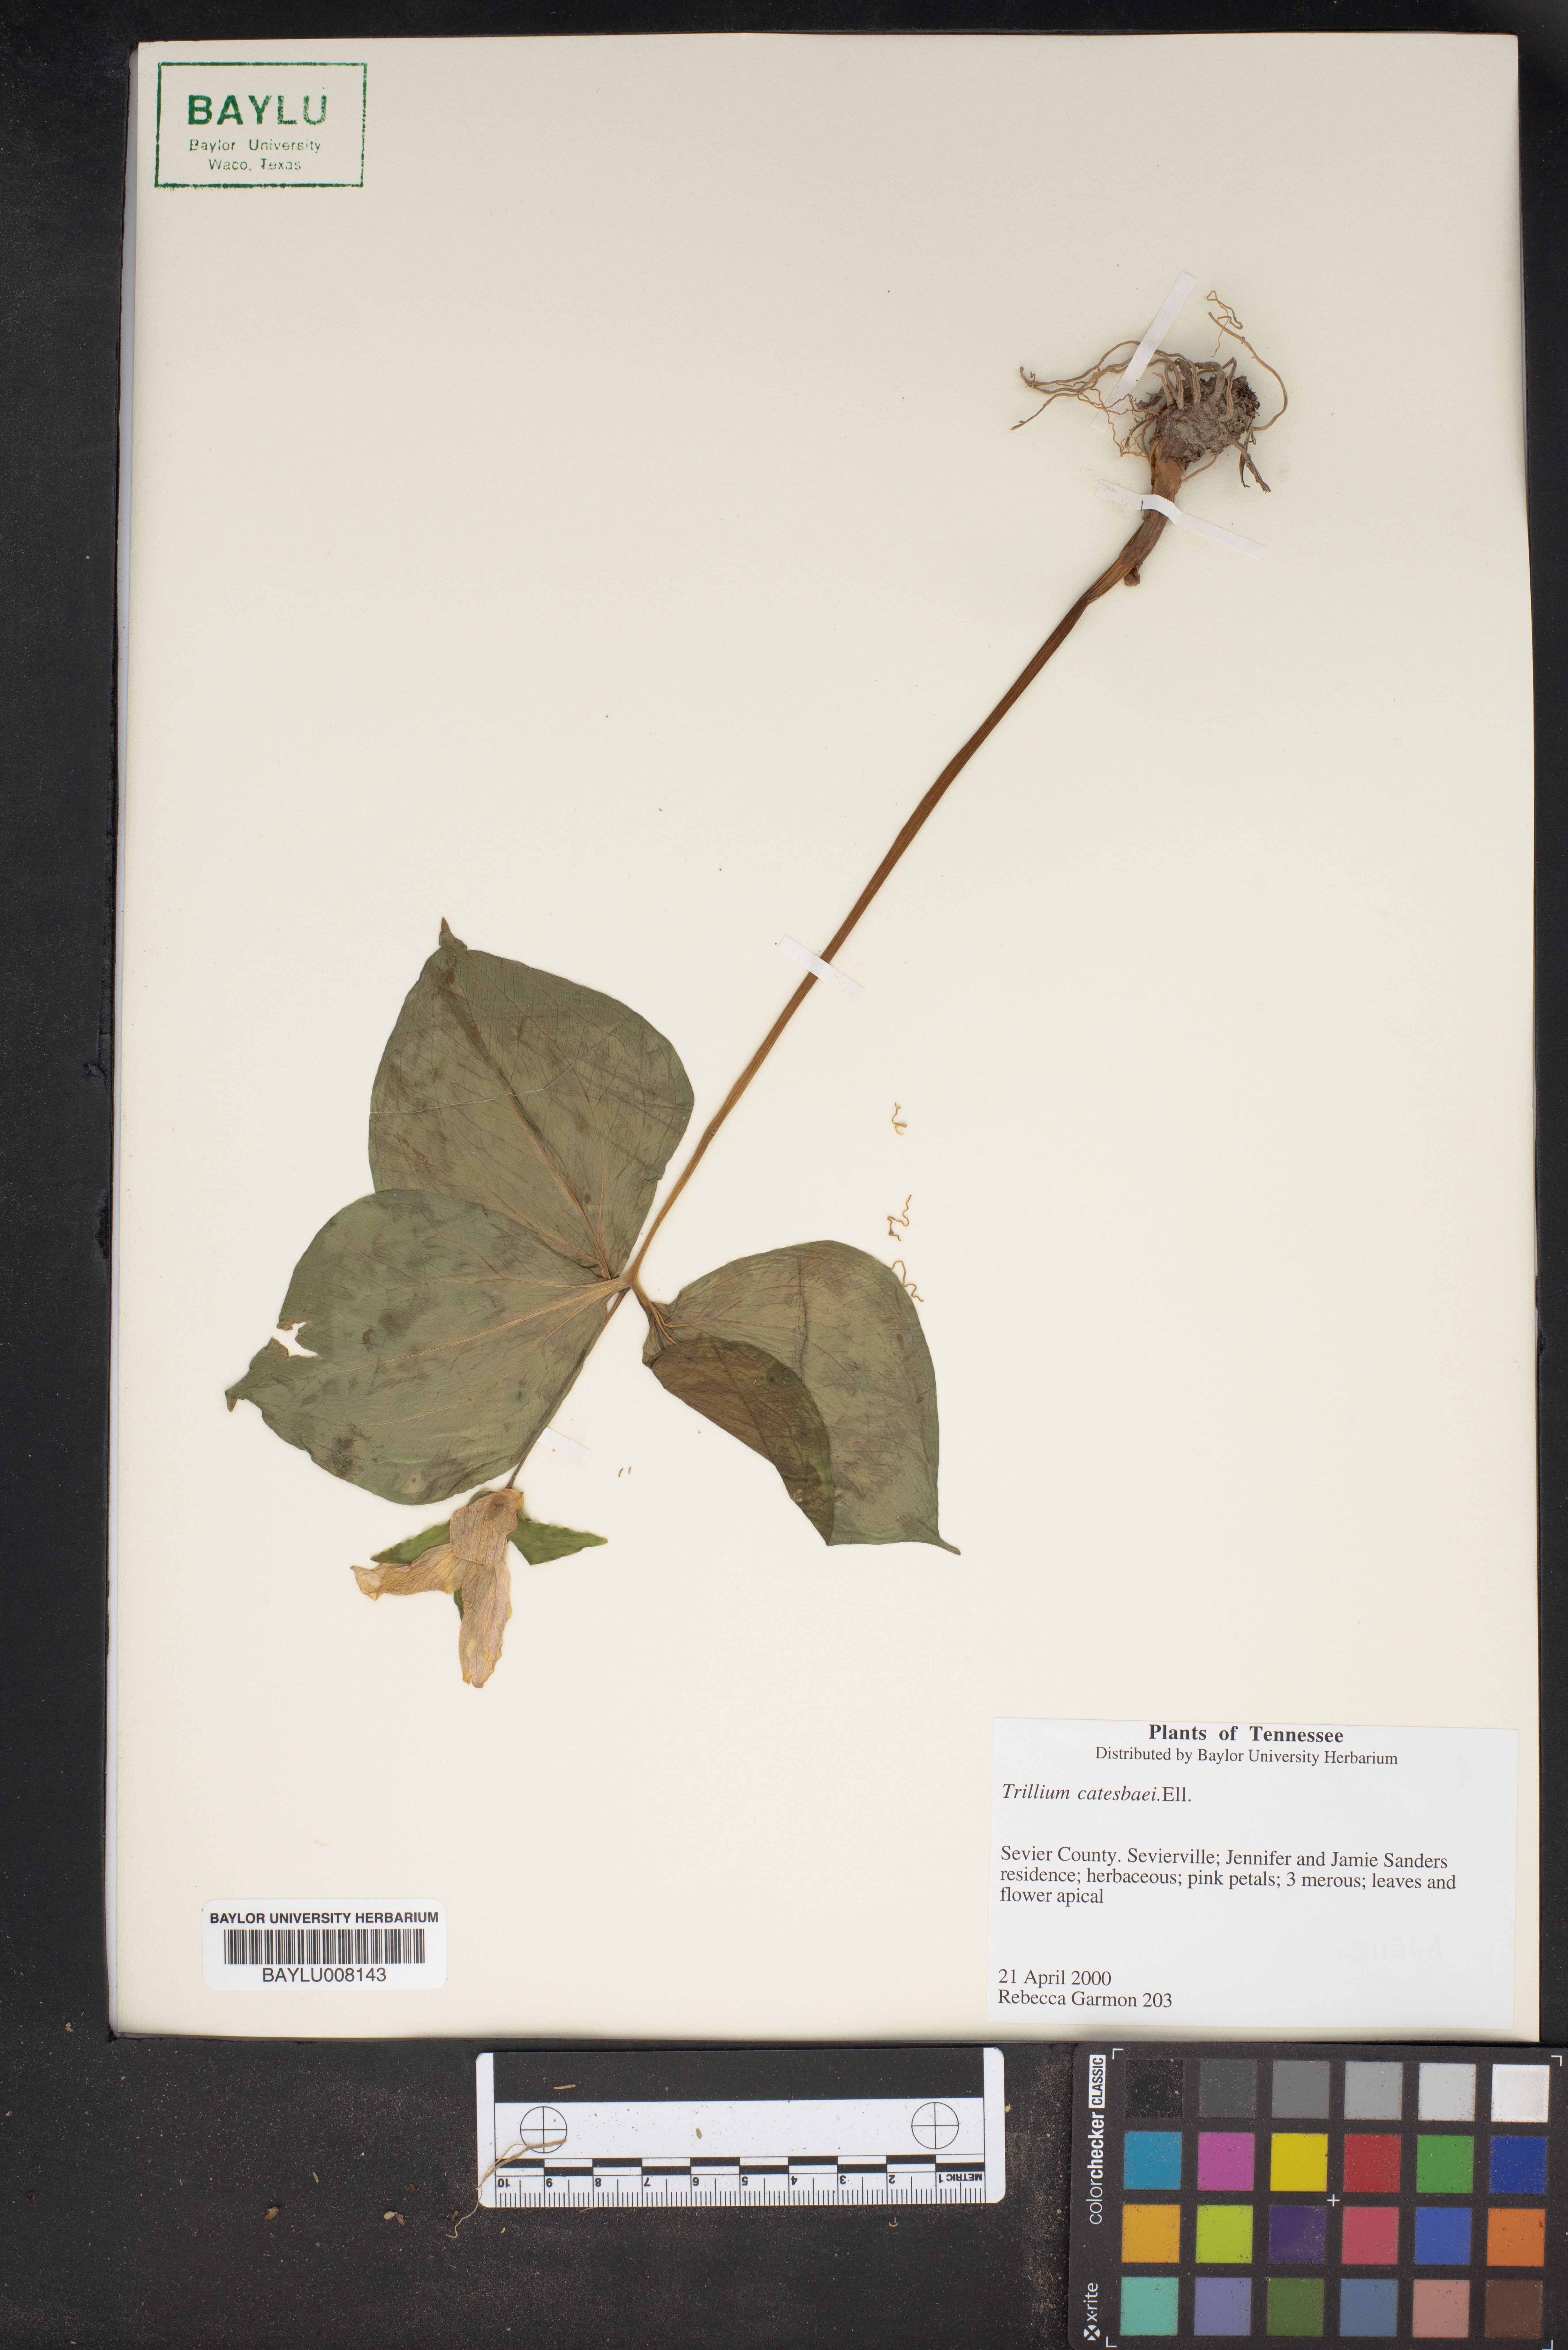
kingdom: Plantae
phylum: Tracheophyta
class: Liliopsida
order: Liliales
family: Melanthiaceae
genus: Trillium
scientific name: Trillium catesbaei
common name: Bashful trillium
